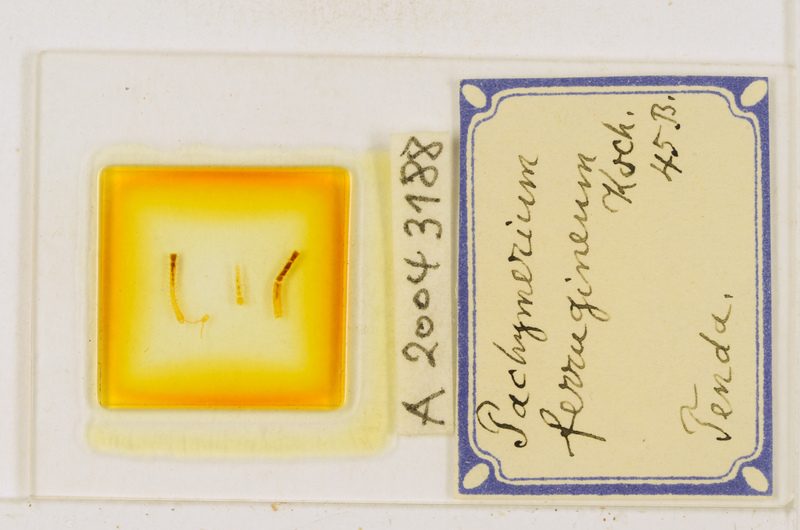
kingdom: Animalia
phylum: Arthropoda
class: Chilopoda
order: Geophilomorpha
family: Geophilidae
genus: Pachymerium
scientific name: Pachymerium ferrugineum
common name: Centipede
